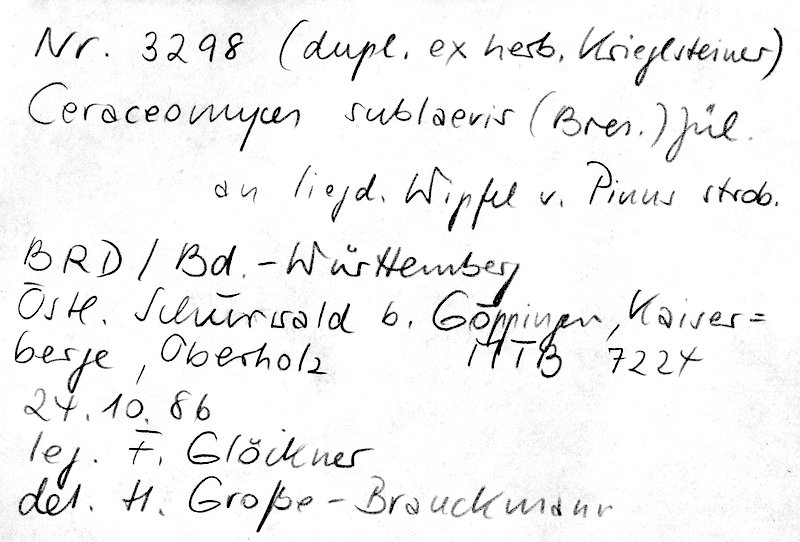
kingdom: Plantae
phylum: Tracheophyta
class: Pinopsida
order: Pinales
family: Pinaceae
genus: Pinus
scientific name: Pinus strobus
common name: Weymouth pine
